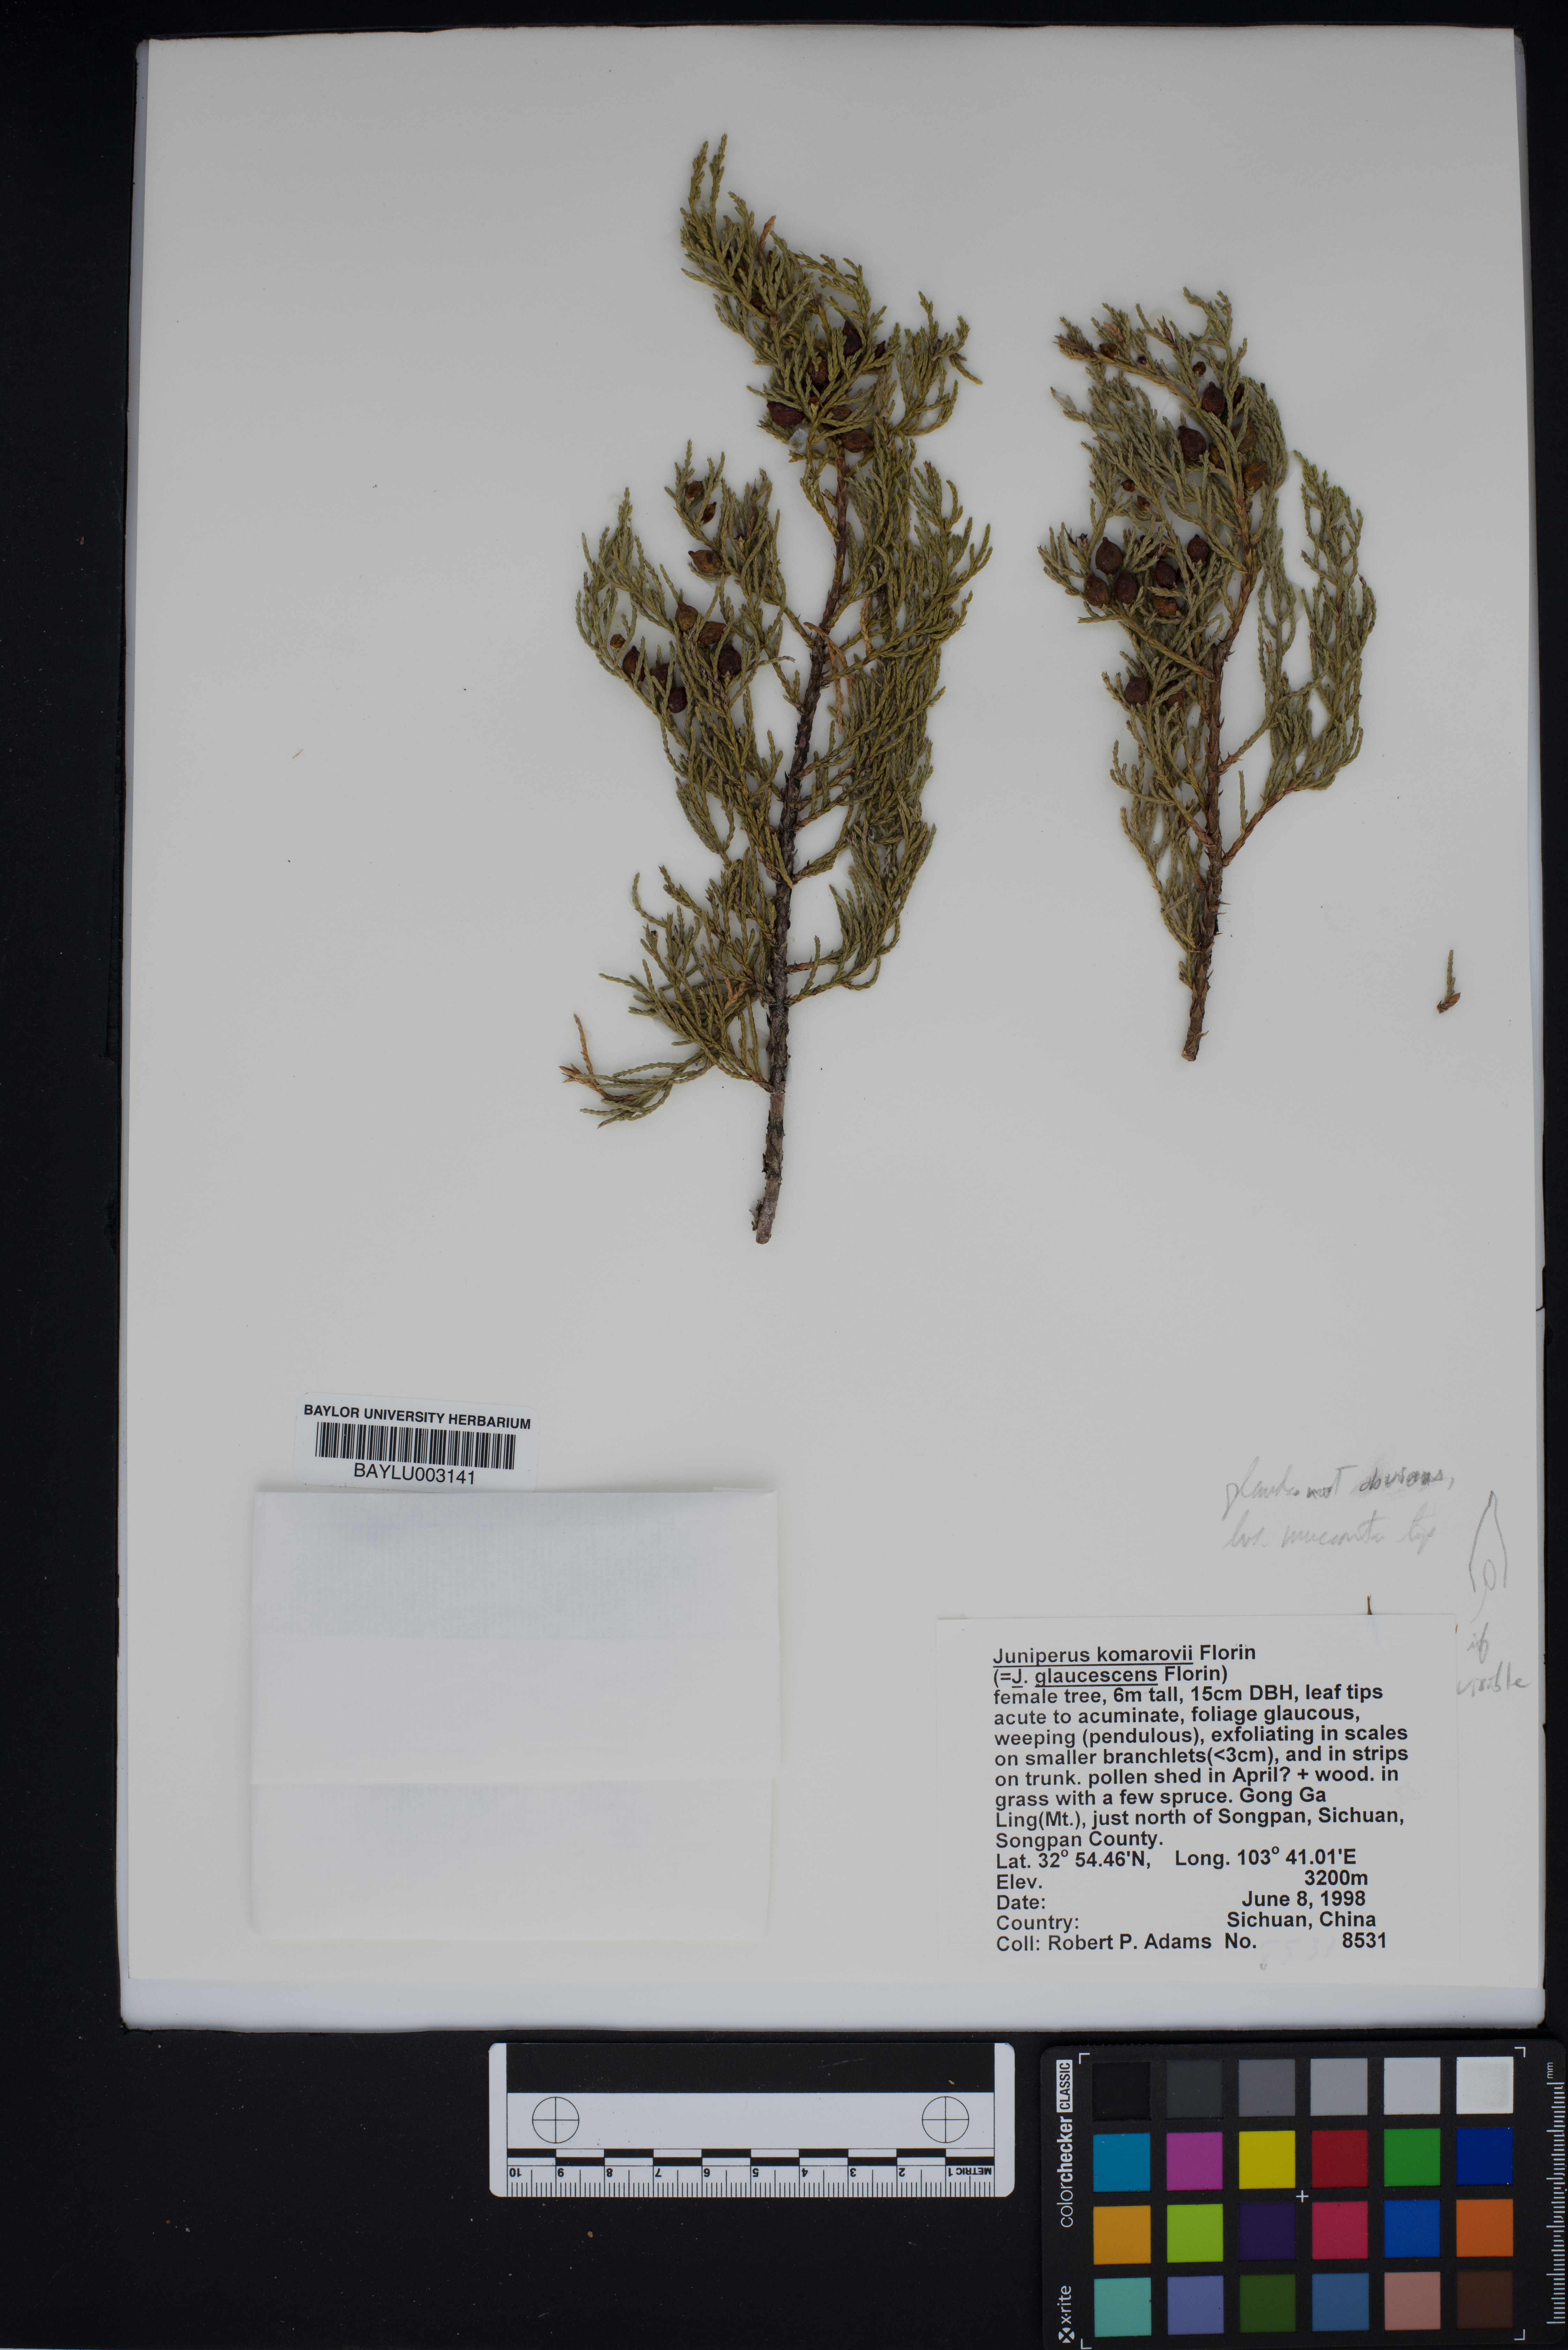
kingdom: Plantae
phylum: Tracheophyta
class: Pinopsida
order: Pinales
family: Cupressaceae
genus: Juniperus
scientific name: Juniperus komarovii
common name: Komarov's juniper
